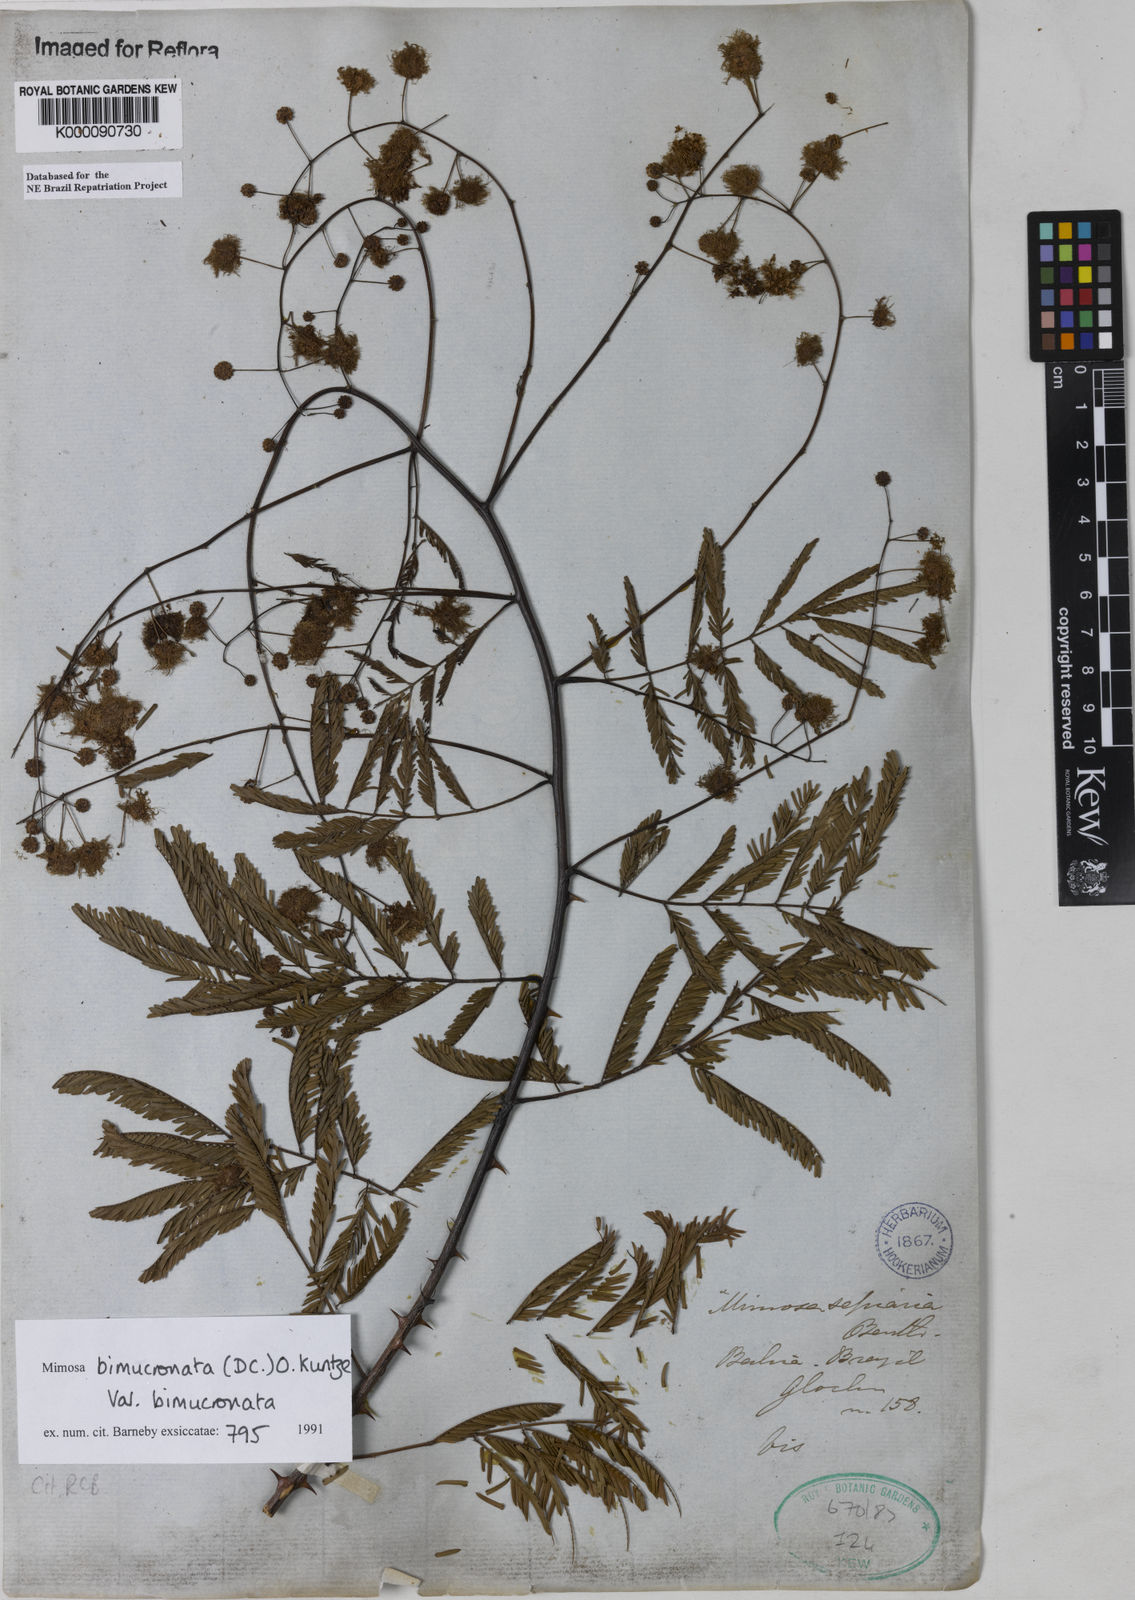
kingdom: Plantae
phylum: Tracheophyta
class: Magnoliopsida
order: Fabales
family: Fabaceae
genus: Mimosa
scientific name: Mimosa bimucronata
